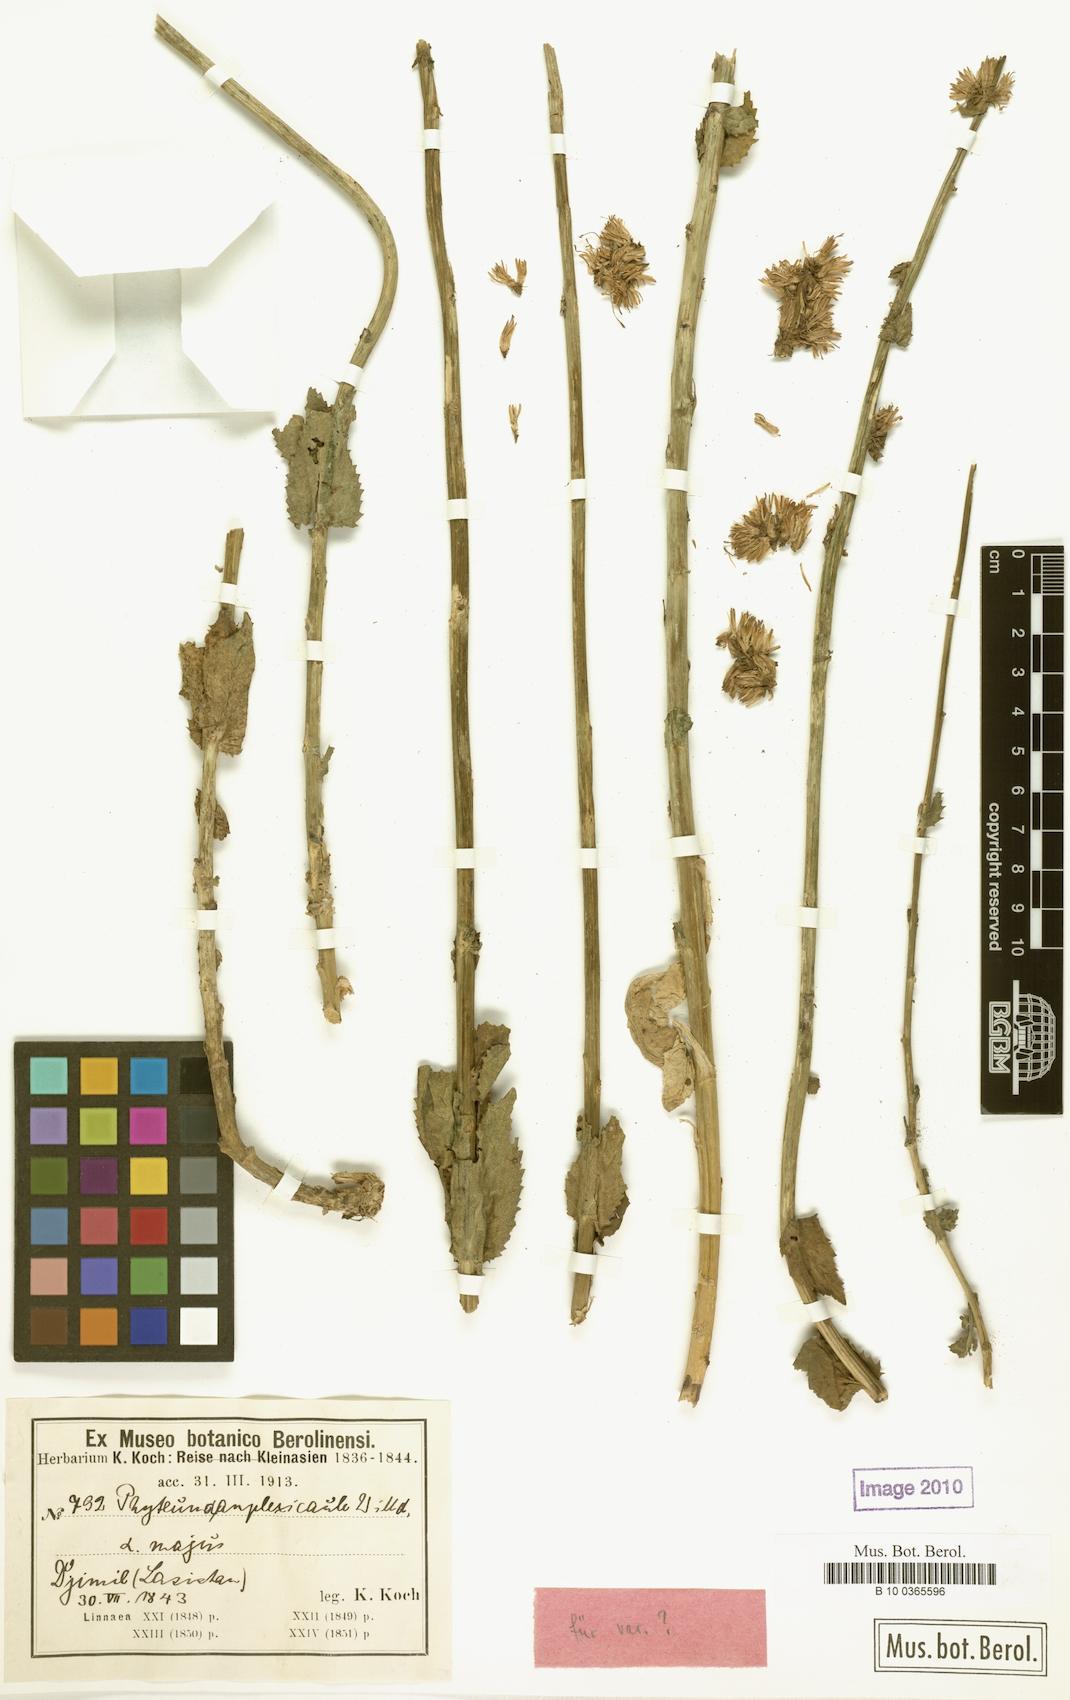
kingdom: Plantae
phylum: Tracheophyta
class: Magnoliopsida
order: Asterales
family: Campanulaceae
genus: Asyneuma
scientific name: Asyneuma amplexicaule
